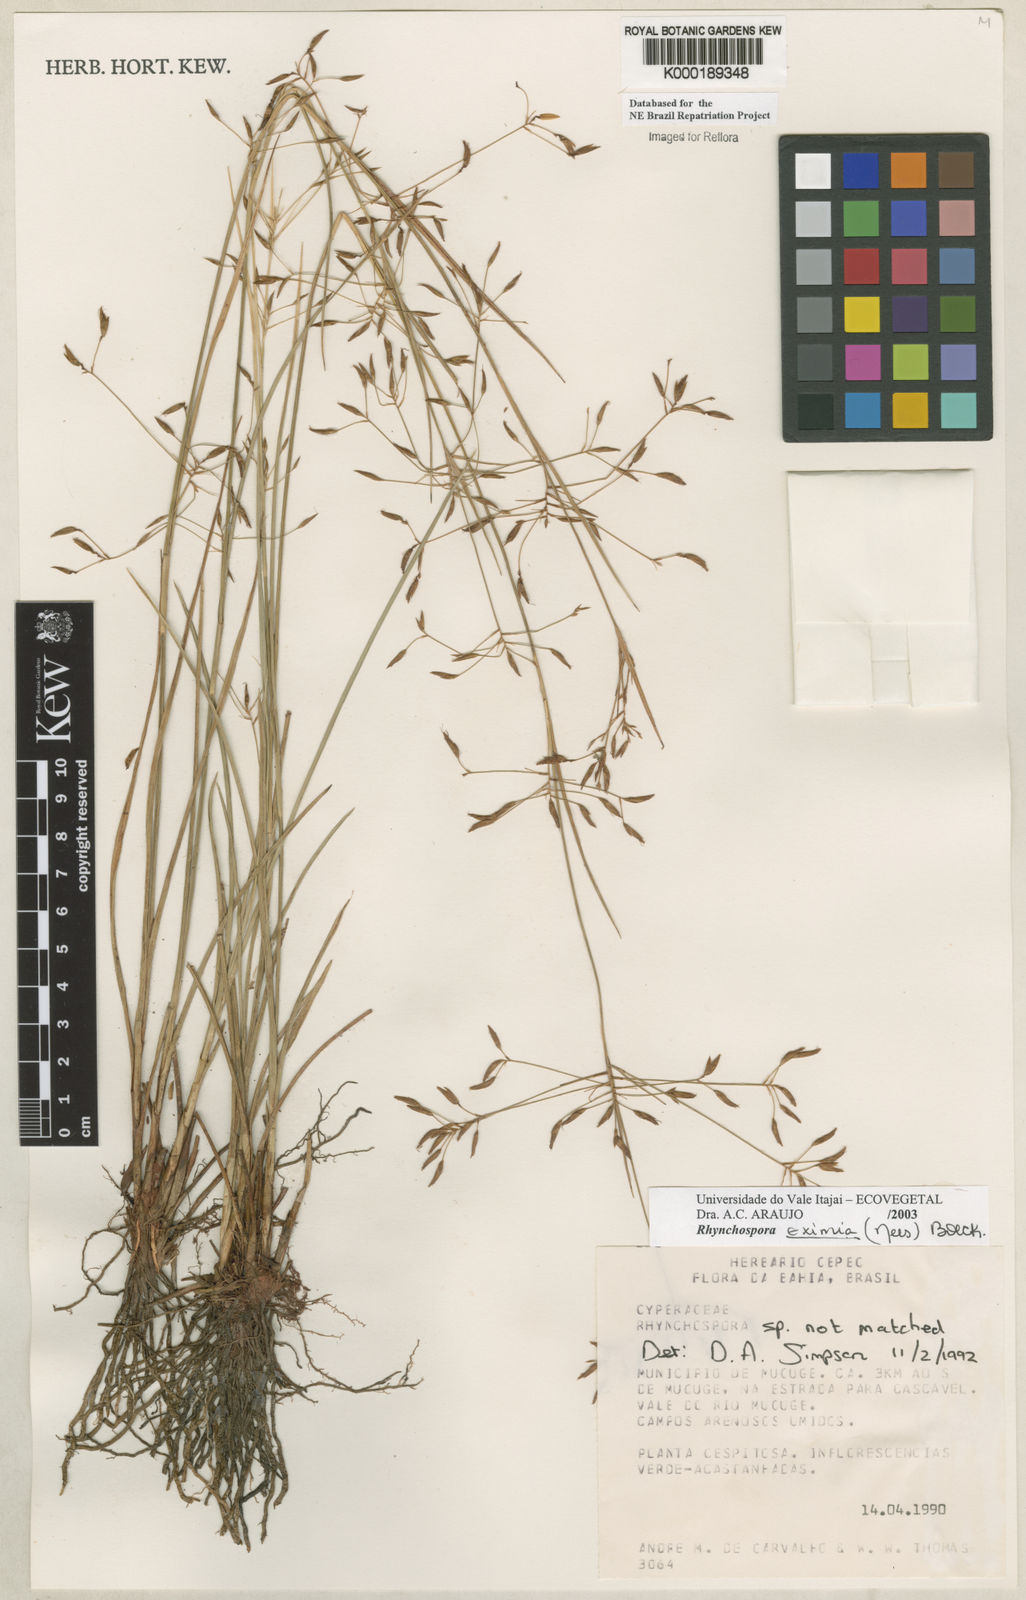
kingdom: Plantae
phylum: Tracheophyta
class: Liliopsida
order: Poales
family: Cyperaceae
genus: Rhynchospora
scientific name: Rhynchospora eximia
